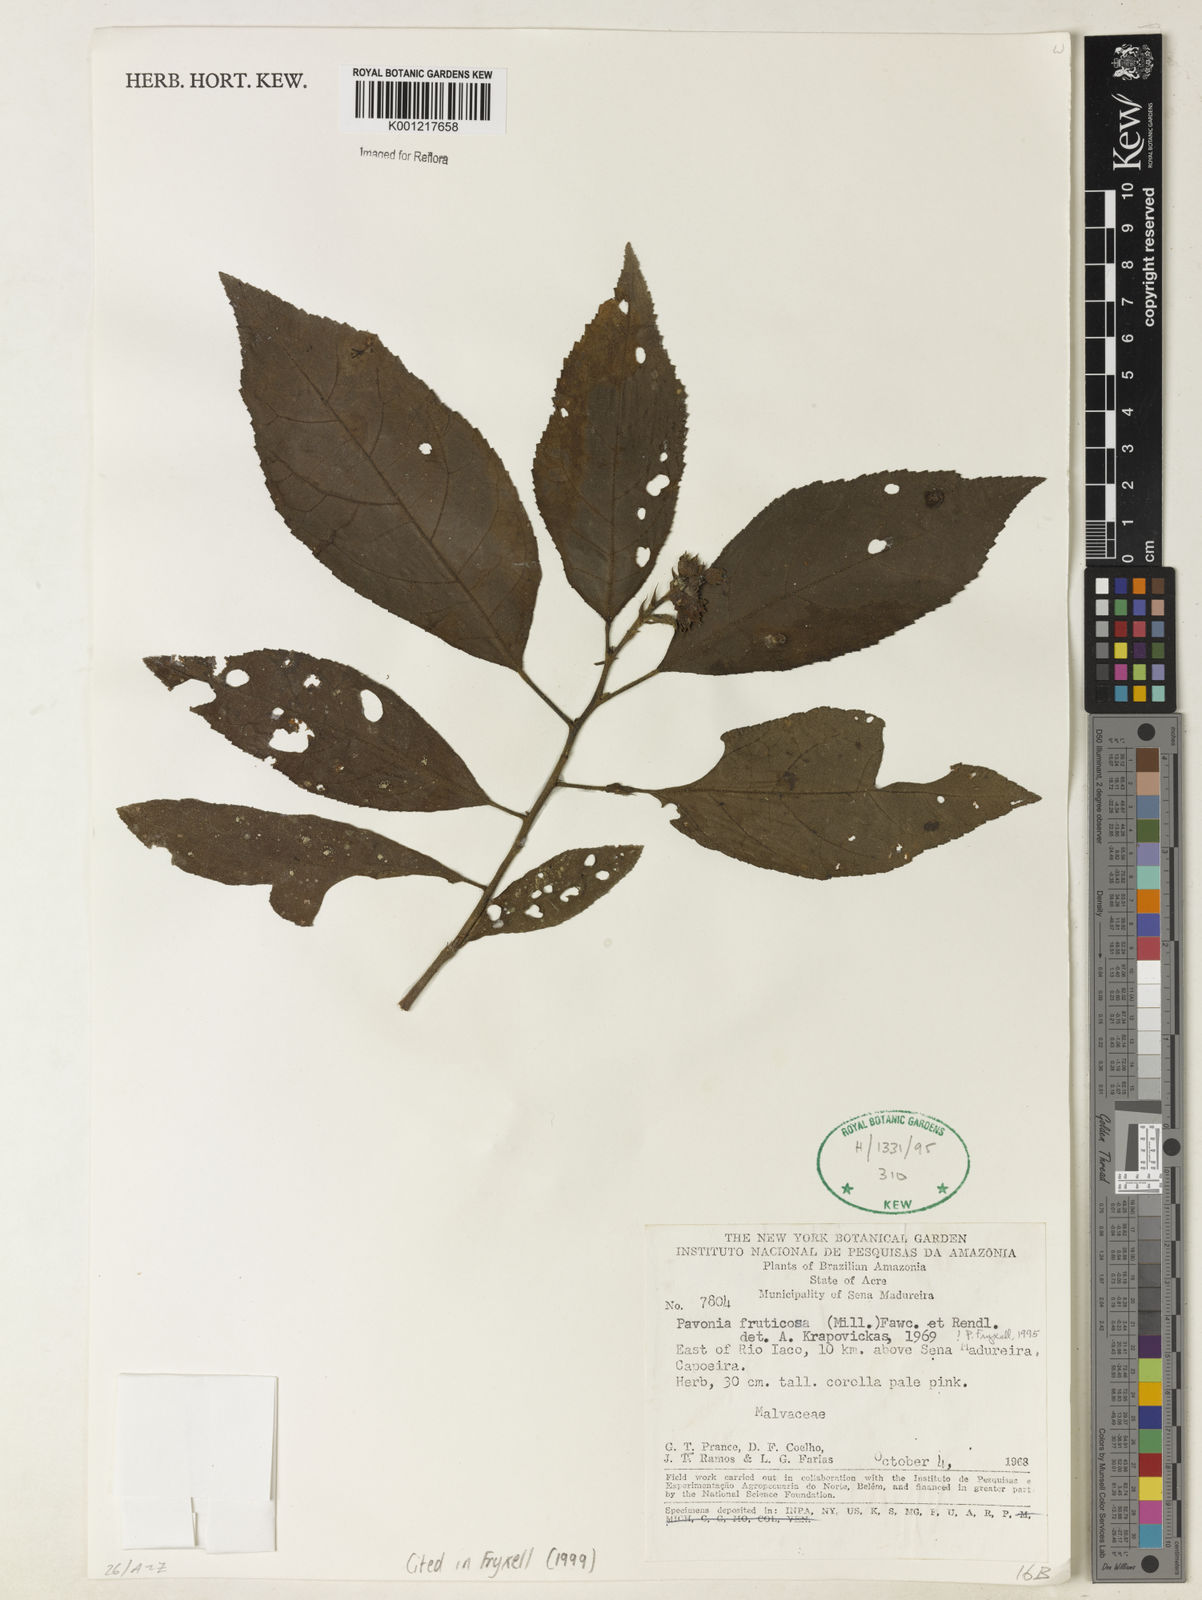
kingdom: Plantae
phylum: Tracheophyta
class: Magnoliopsida
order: Malvales
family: Malvaceae
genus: Pavonia
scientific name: Pavonia fruticosa
